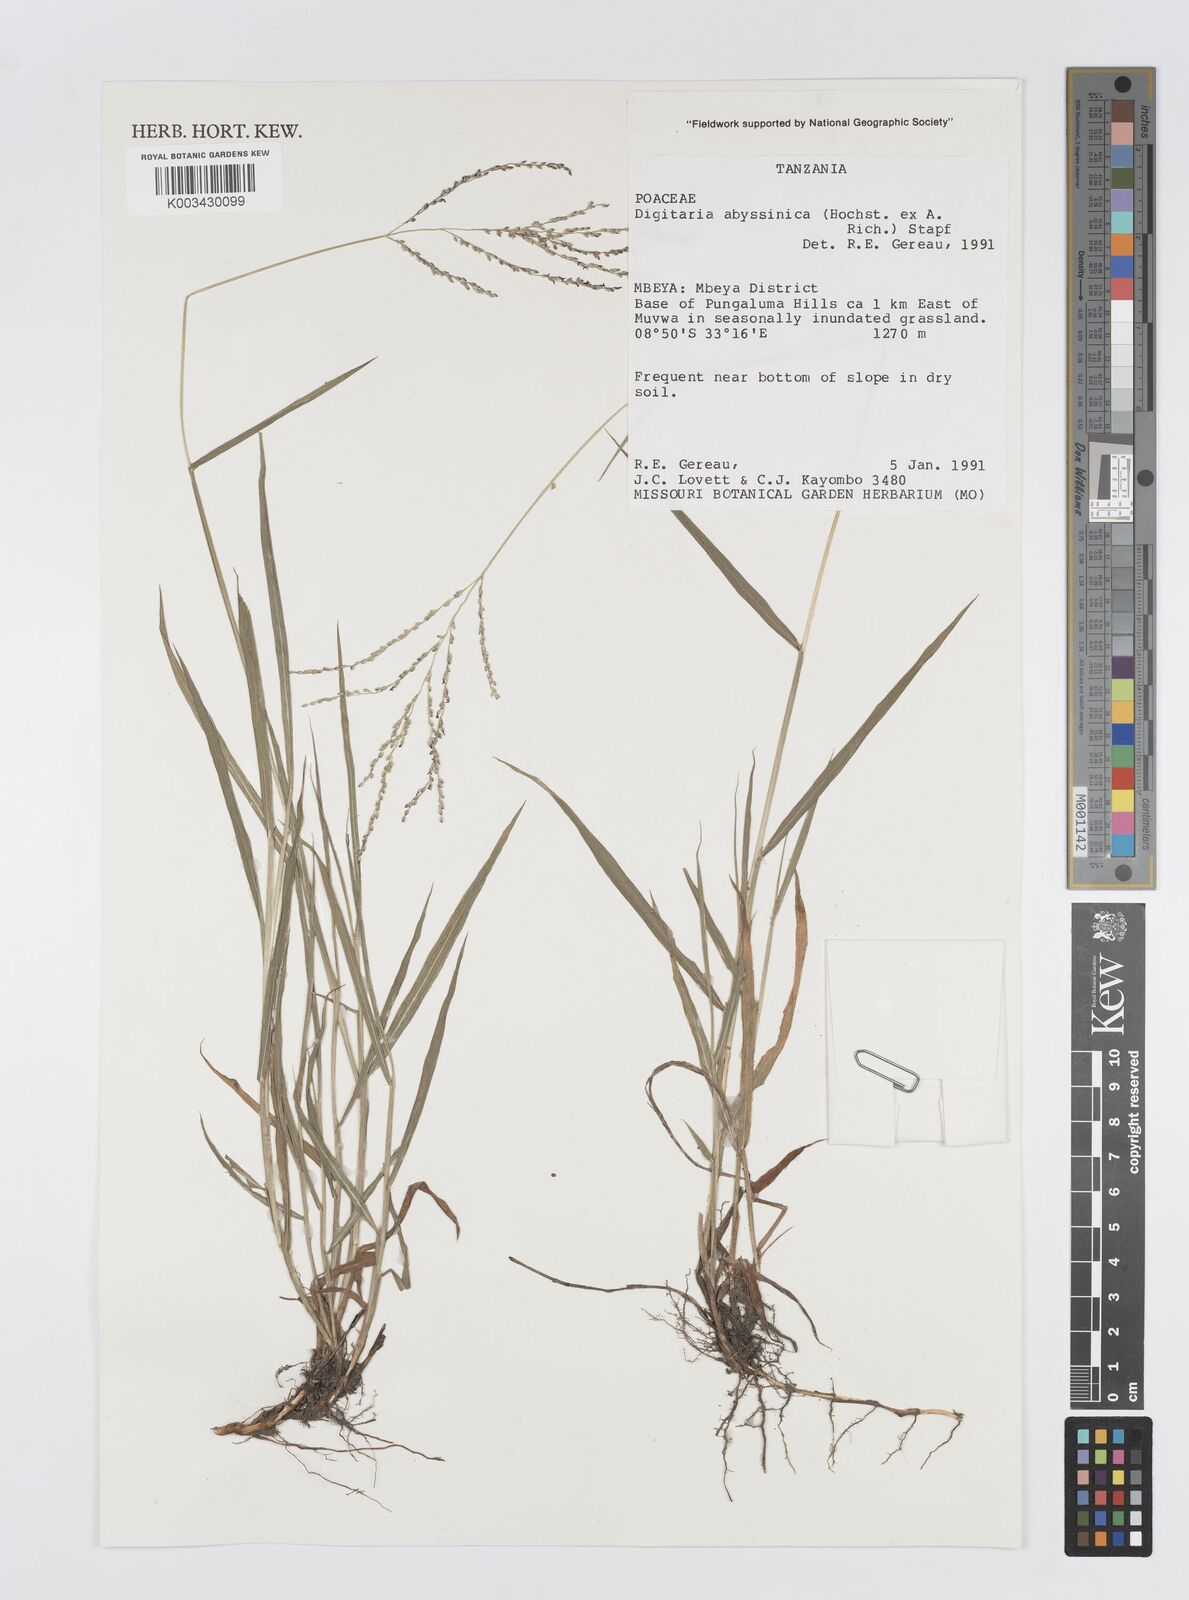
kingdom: Plantae
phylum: Tracheophyta
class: Liliopsida
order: Poales
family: Poaceae
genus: Digitaria
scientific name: Digitaria abyssinica
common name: African couchgrass
